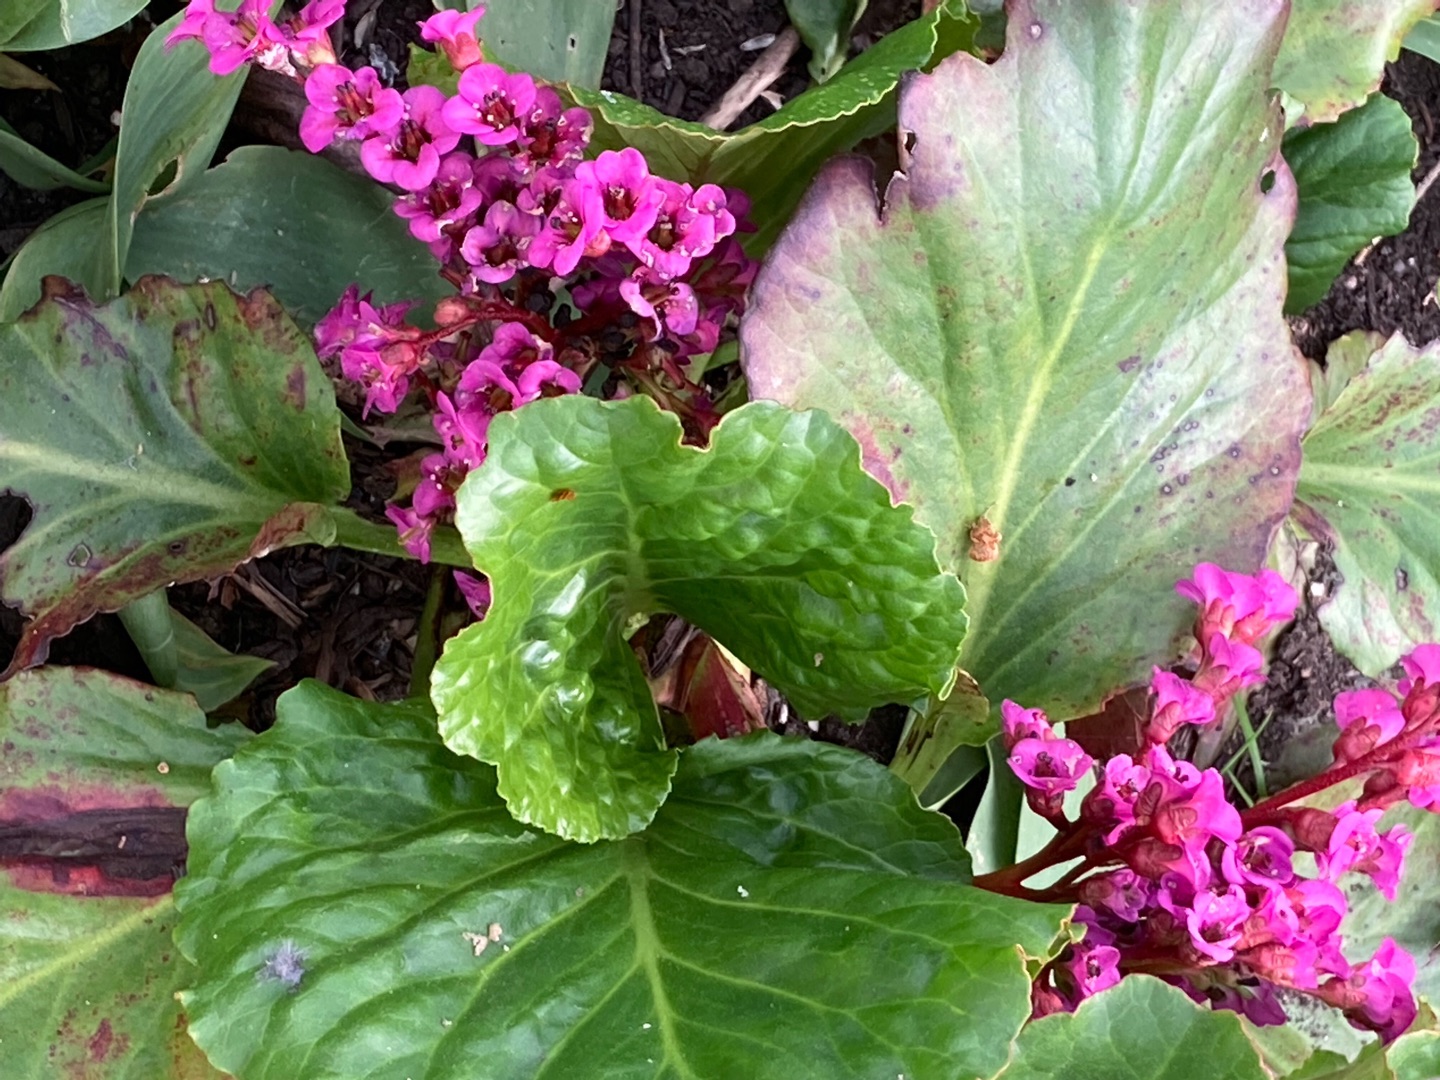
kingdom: Plantae
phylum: Tracheophyta
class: Magnoliopsida
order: Saxifragales
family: Saxifragaceae
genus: Bergenia
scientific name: Bergenia crassifolia
